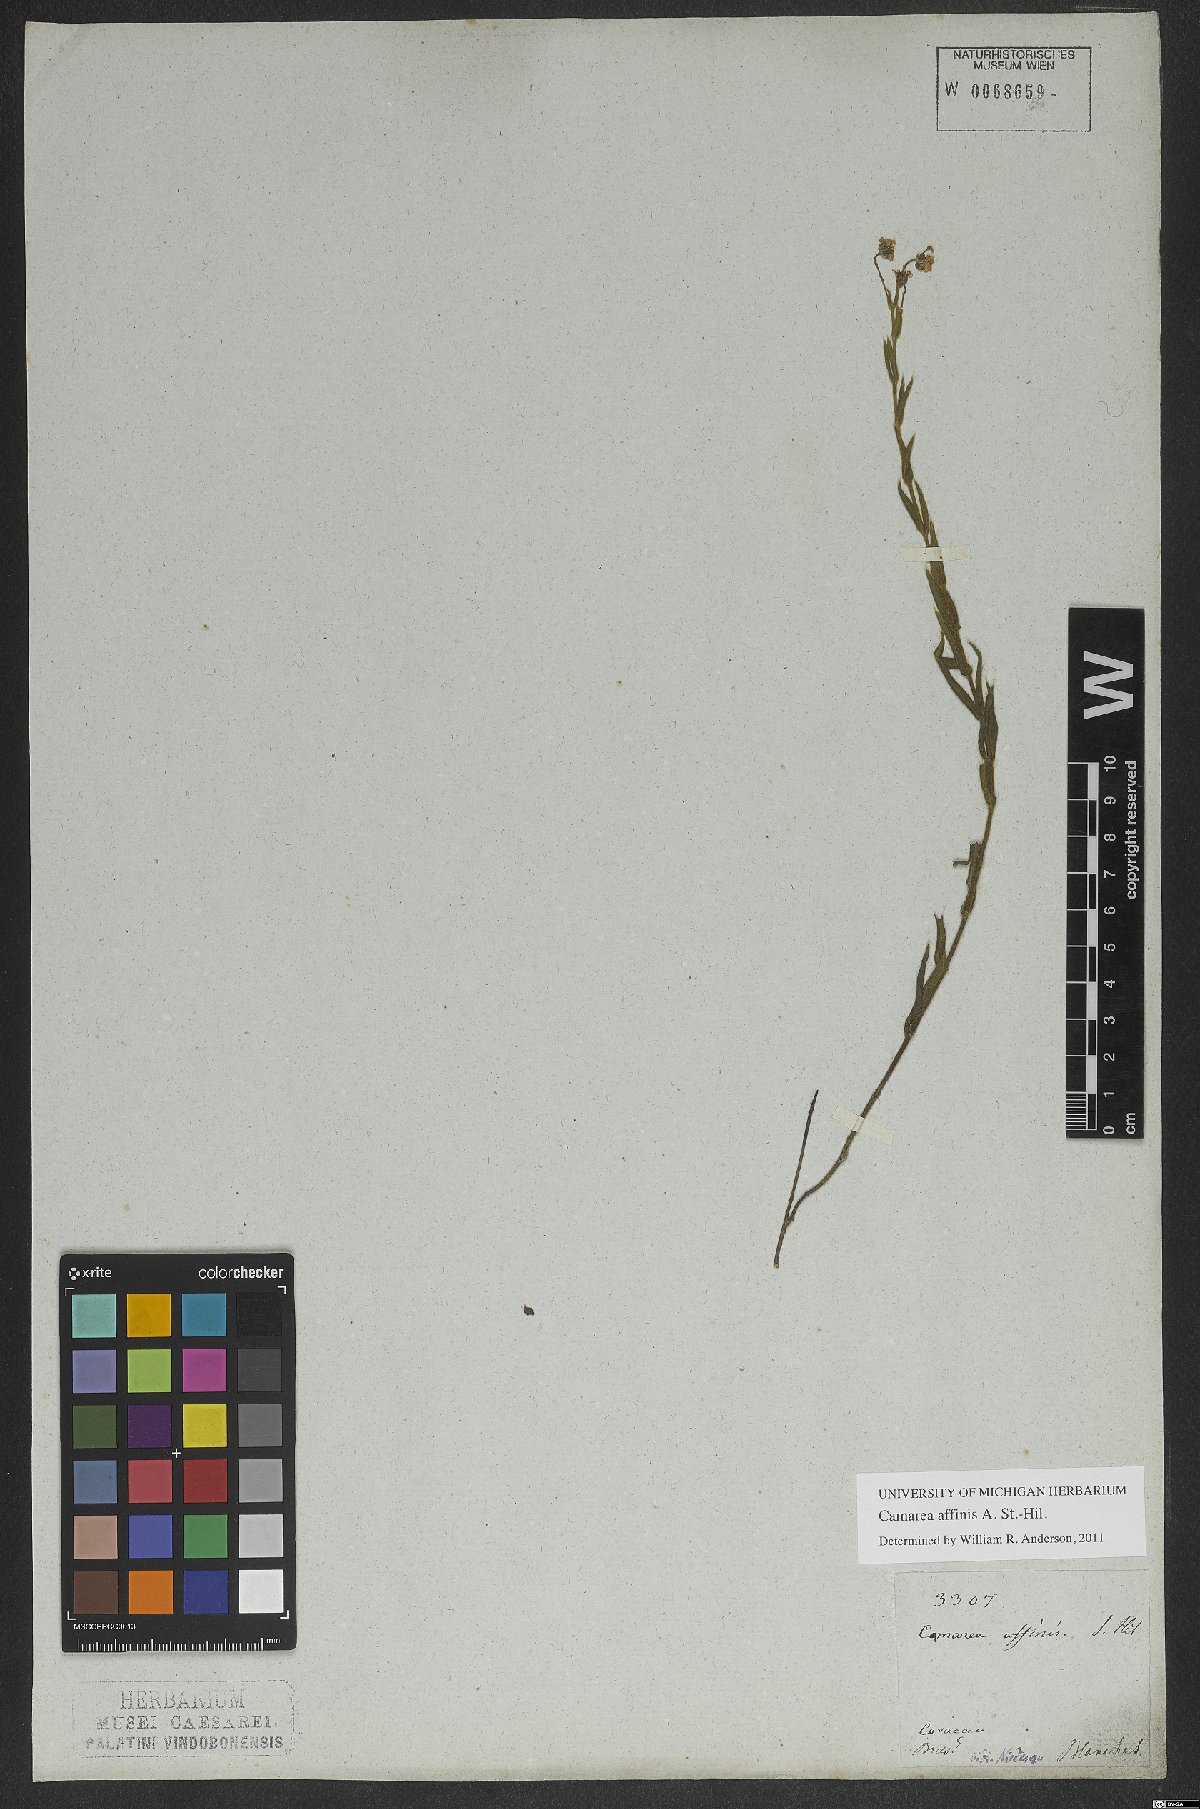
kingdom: Plantae
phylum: Tracheophyta
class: Magnoliopsida
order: Malpighiales
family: Malpighiaceae
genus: Camarea
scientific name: Camarea affinis
